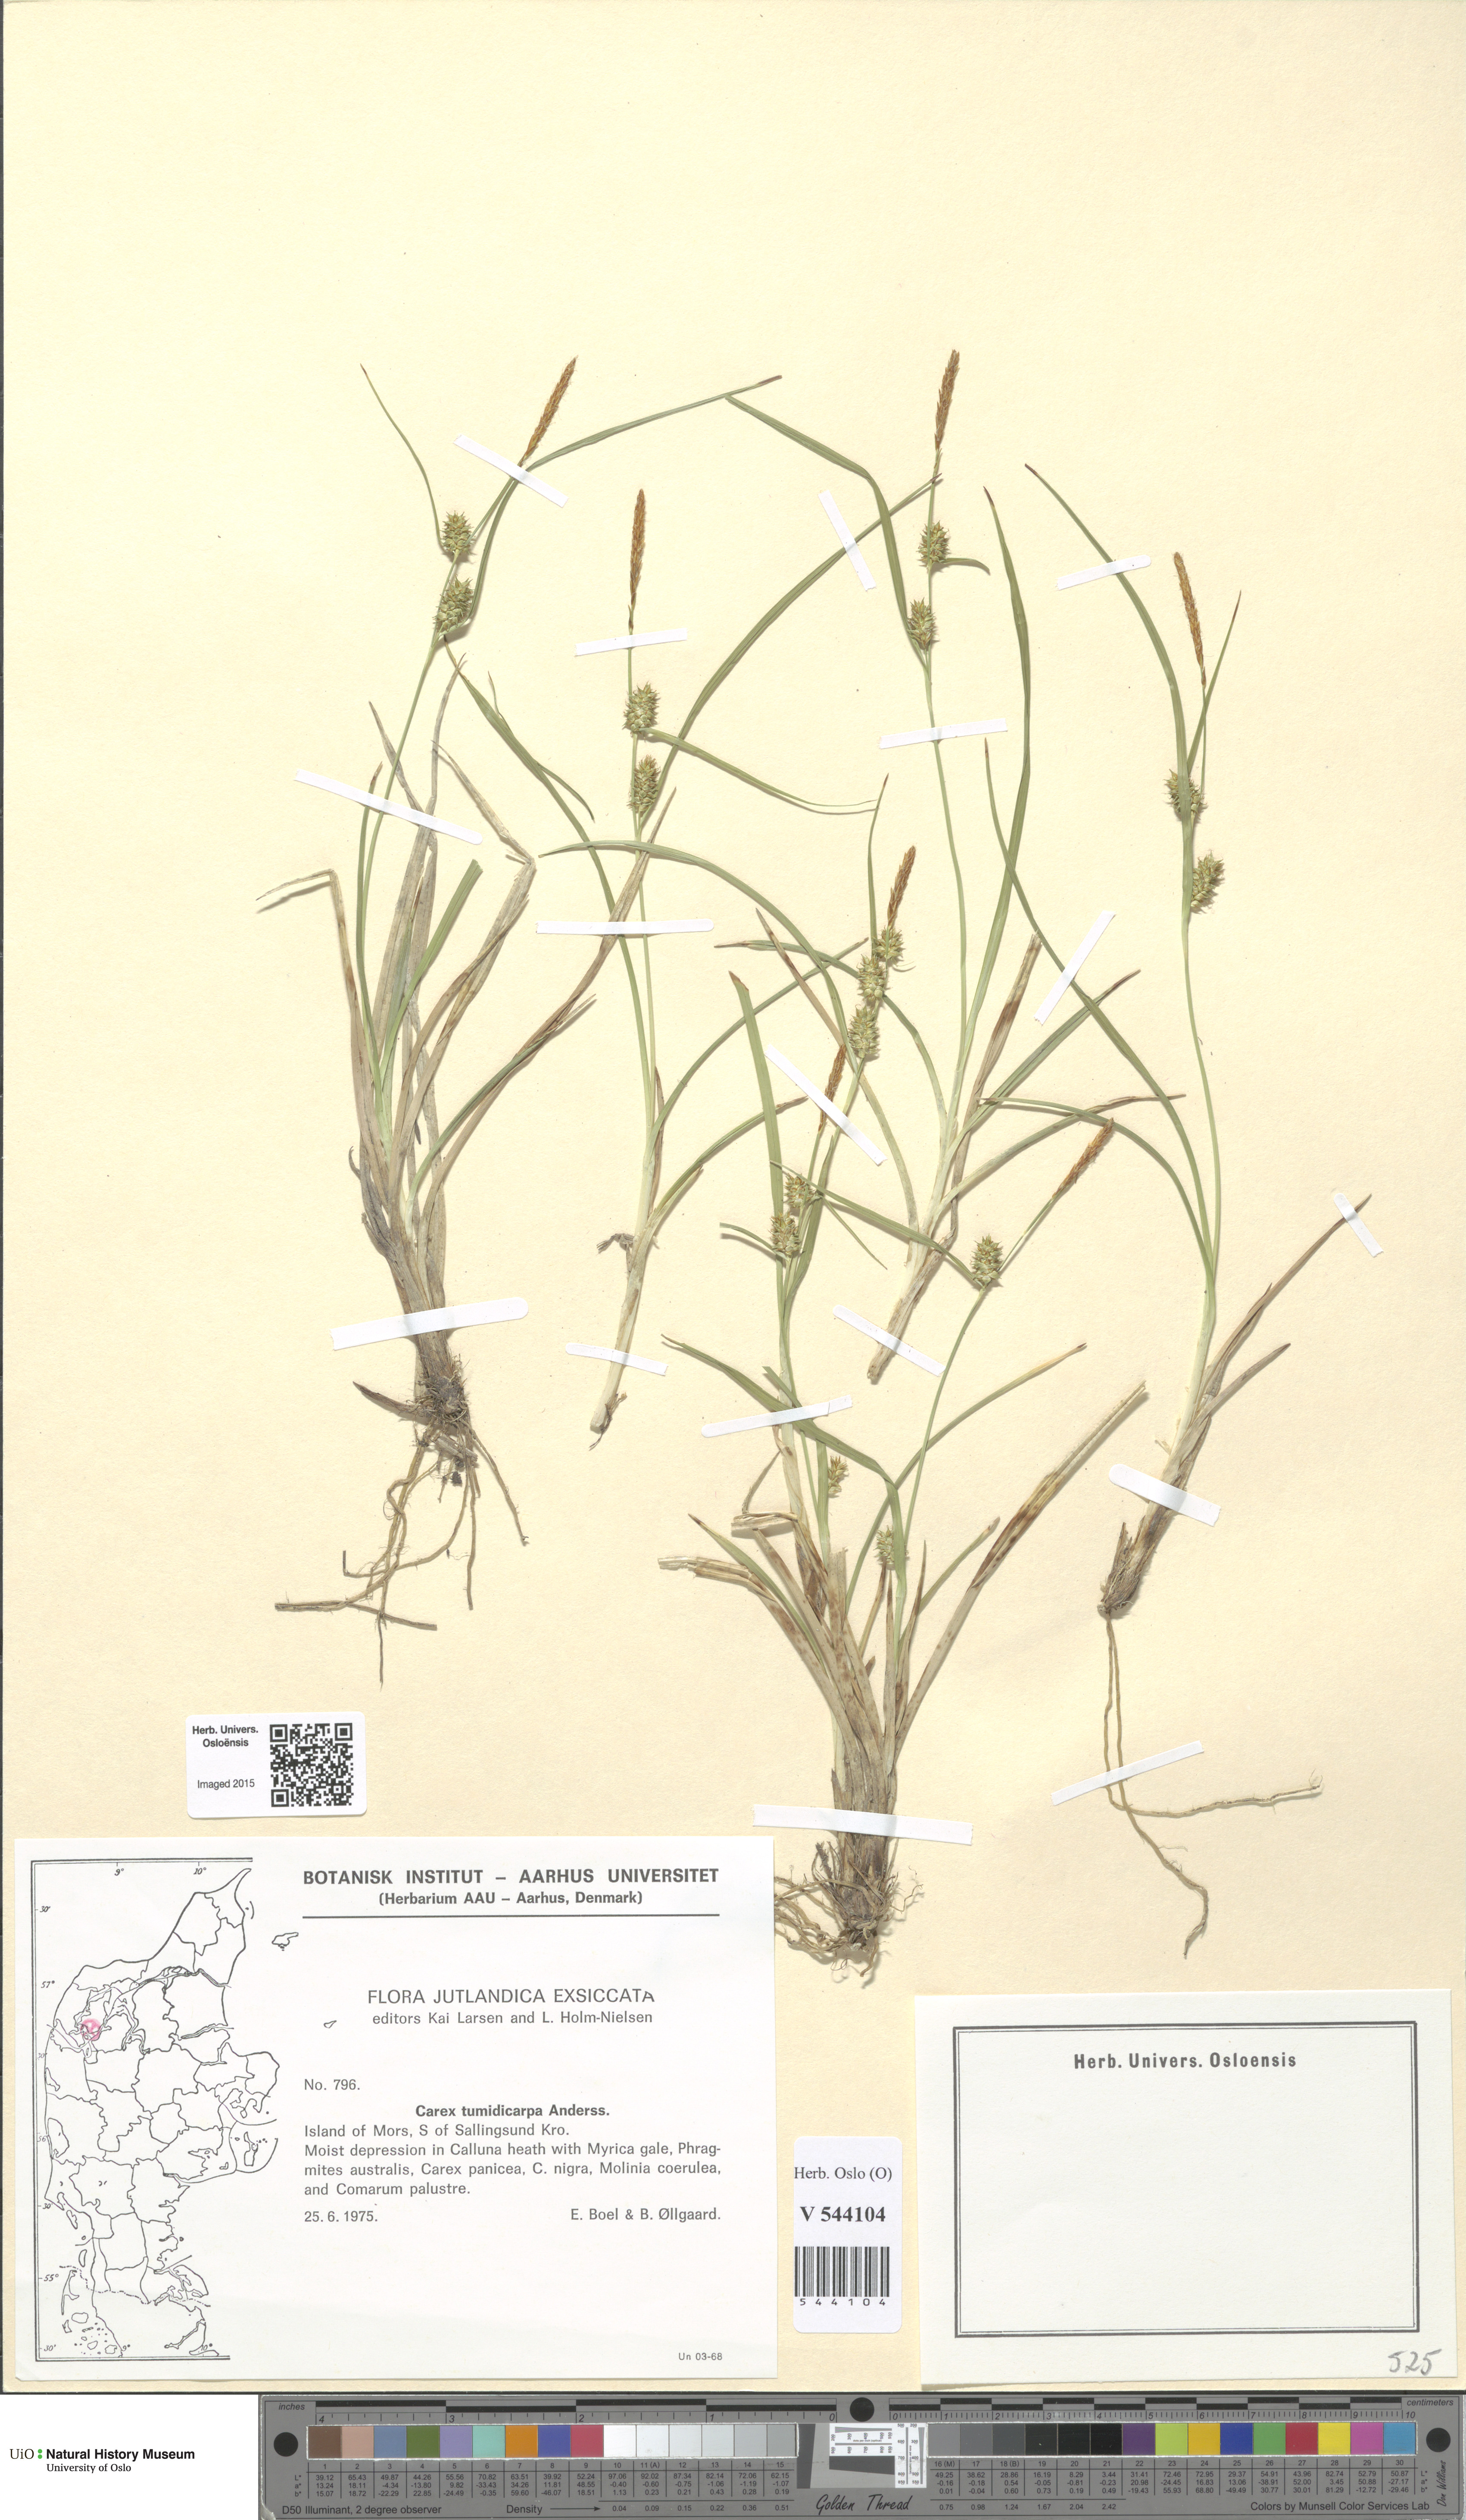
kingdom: Plantae
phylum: Tracheophyta
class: Liliopsida
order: Poales
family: Cyperaceae
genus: Carex
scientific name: Carex demissa
